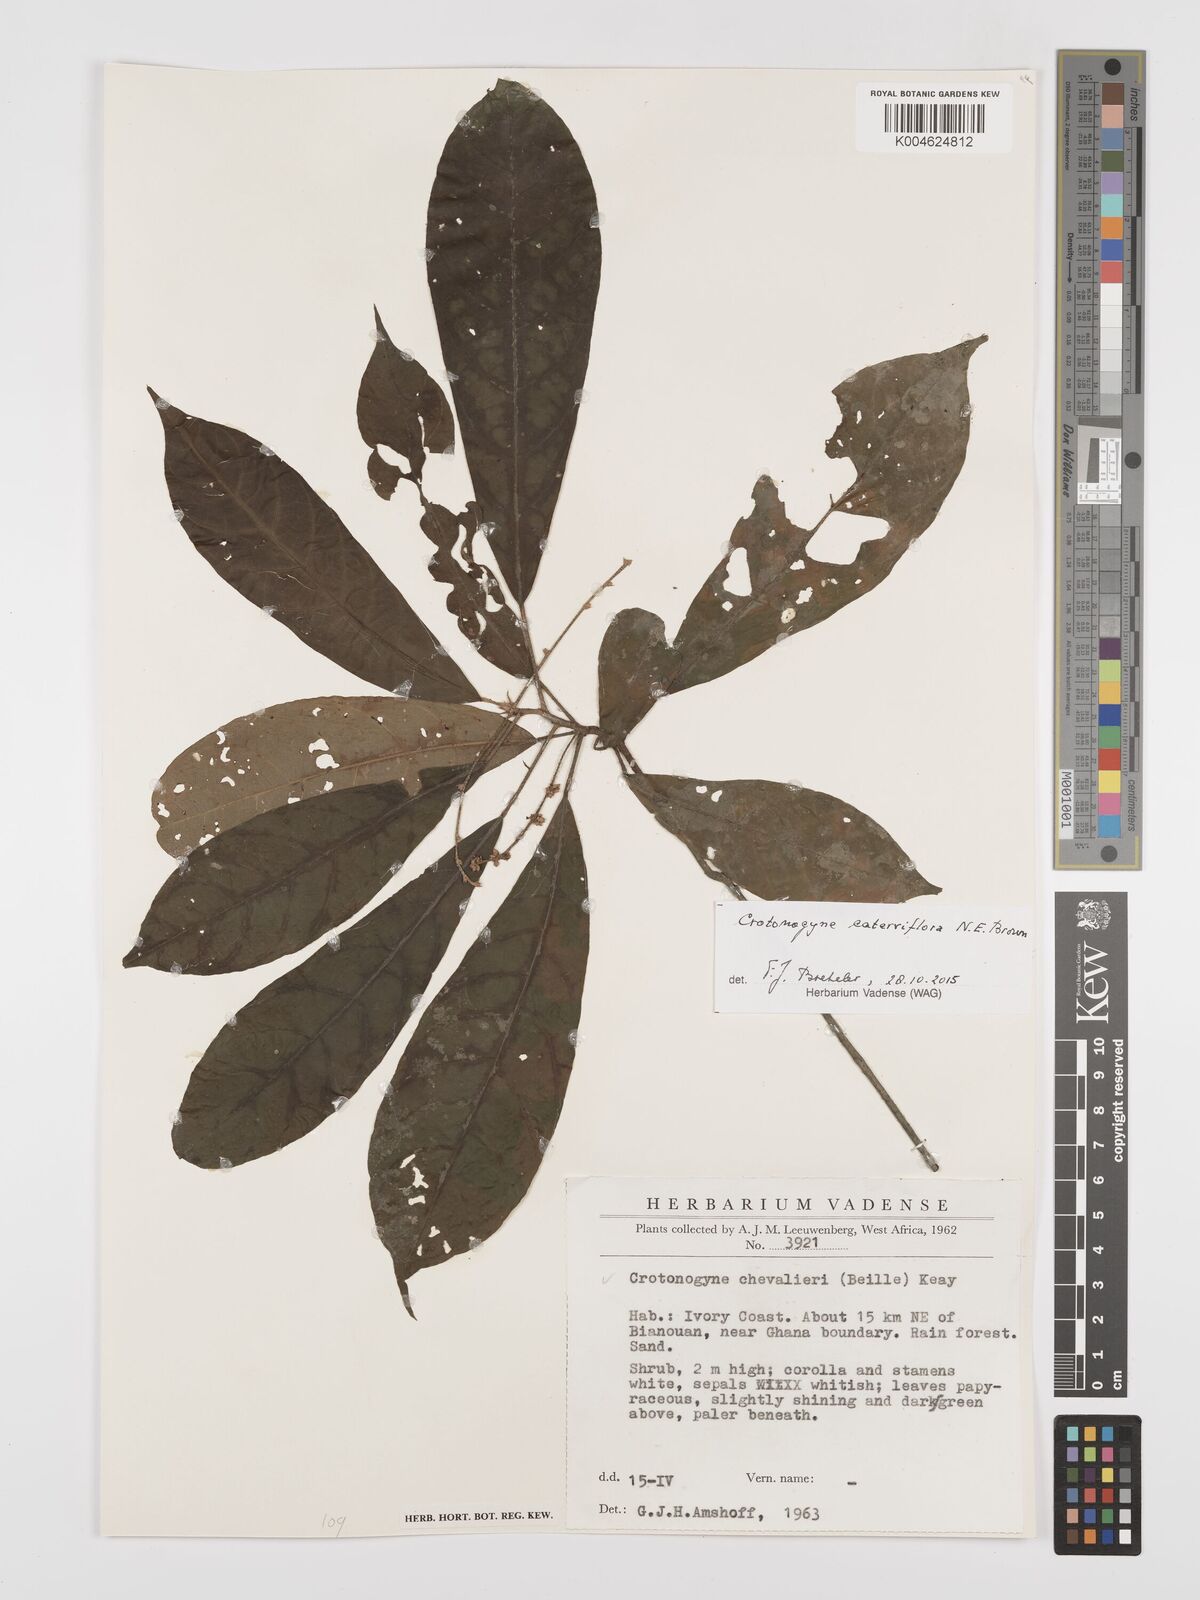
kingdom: Plantae
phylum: Tracheophyta
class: Magnoliopsida
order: Malpighiales
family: Euphorbiaceae
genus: Crotonogyne
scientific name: Crotonogyne caterviflora
